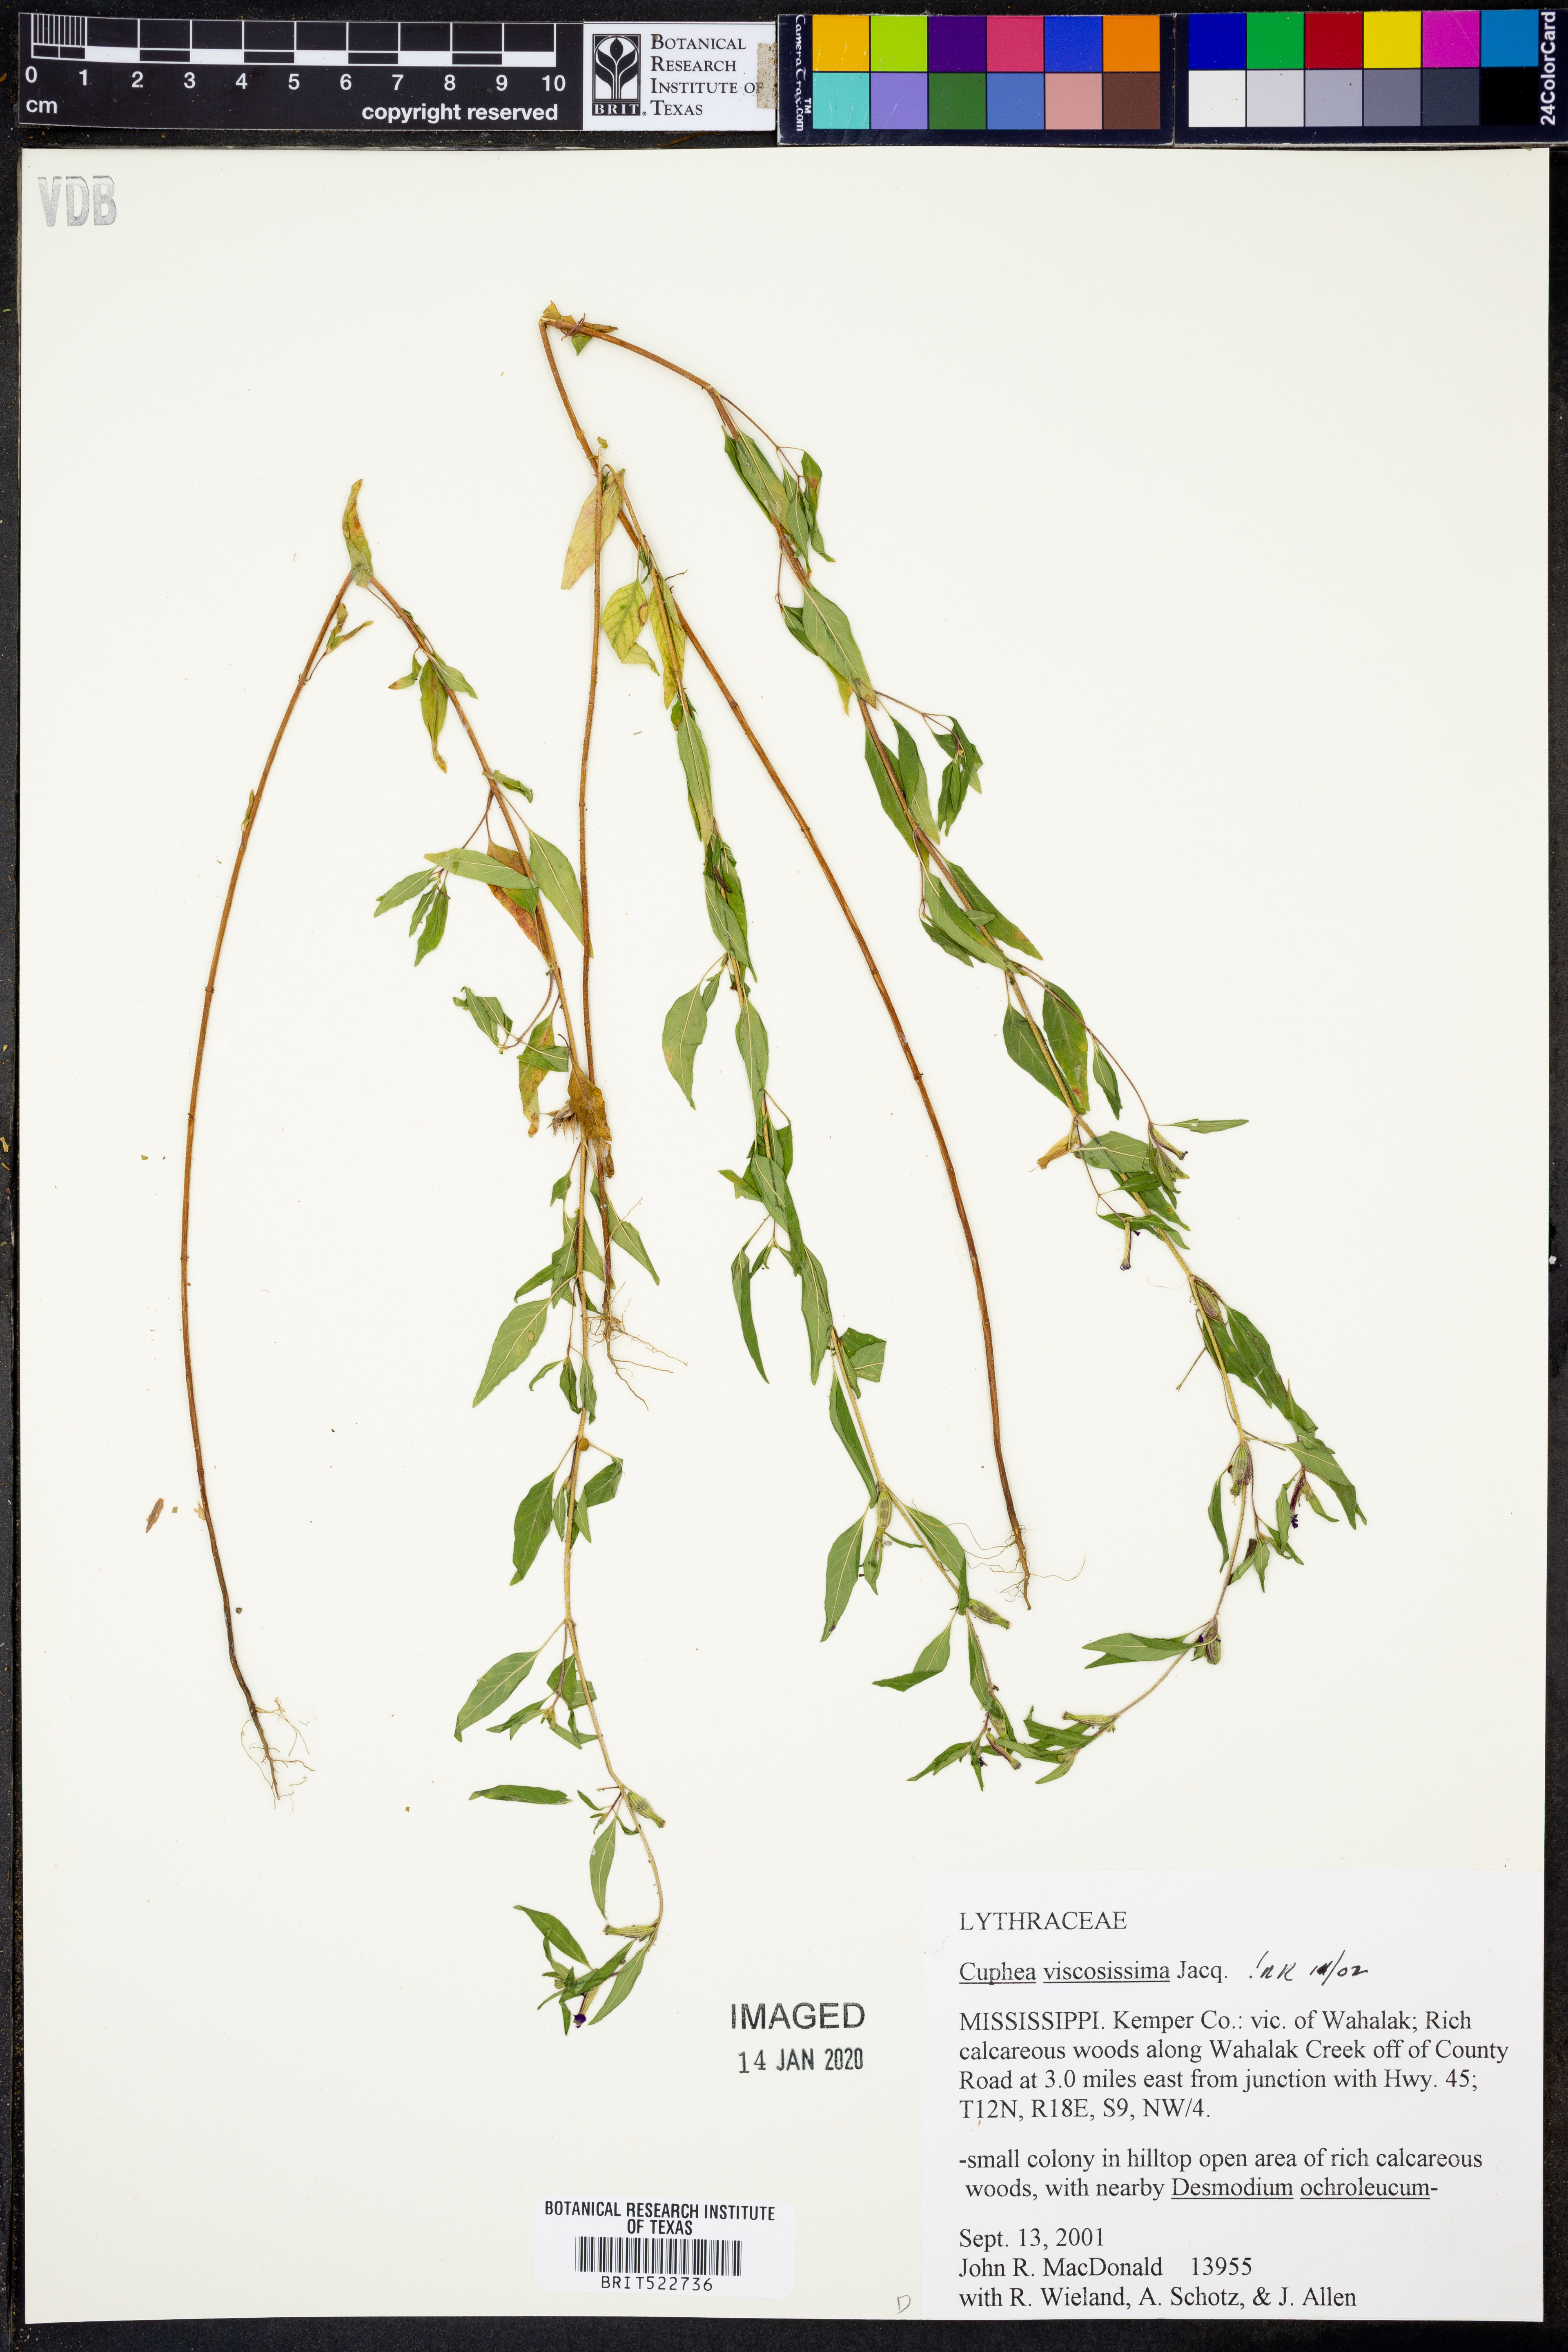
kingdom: Plantae
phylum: Tracheophyta
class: Magnoliopsida
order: Myrtales
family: Lythraceae
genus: Cuphea
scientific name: Cuphea viscosissima
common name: Clammy cuphea
